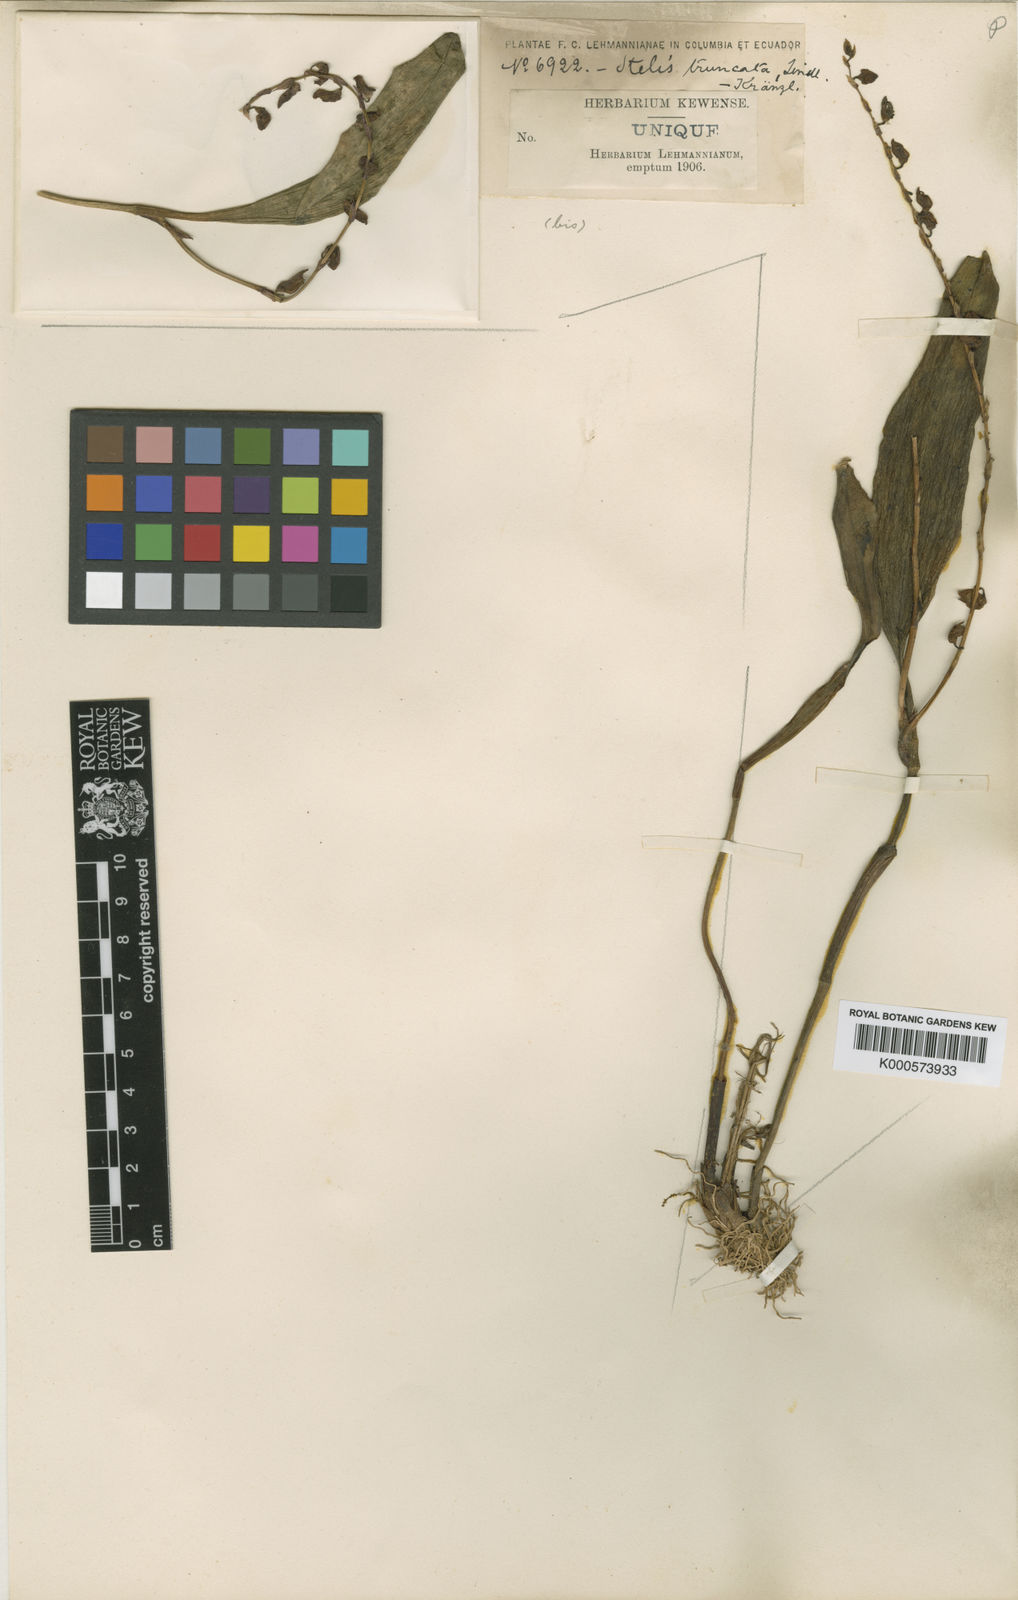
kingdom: Plantae
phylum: Tracheophyta
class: Liliopsida
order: Asparagales
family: Orchidaceae
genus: Stelis
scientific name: Stelis purpurea
